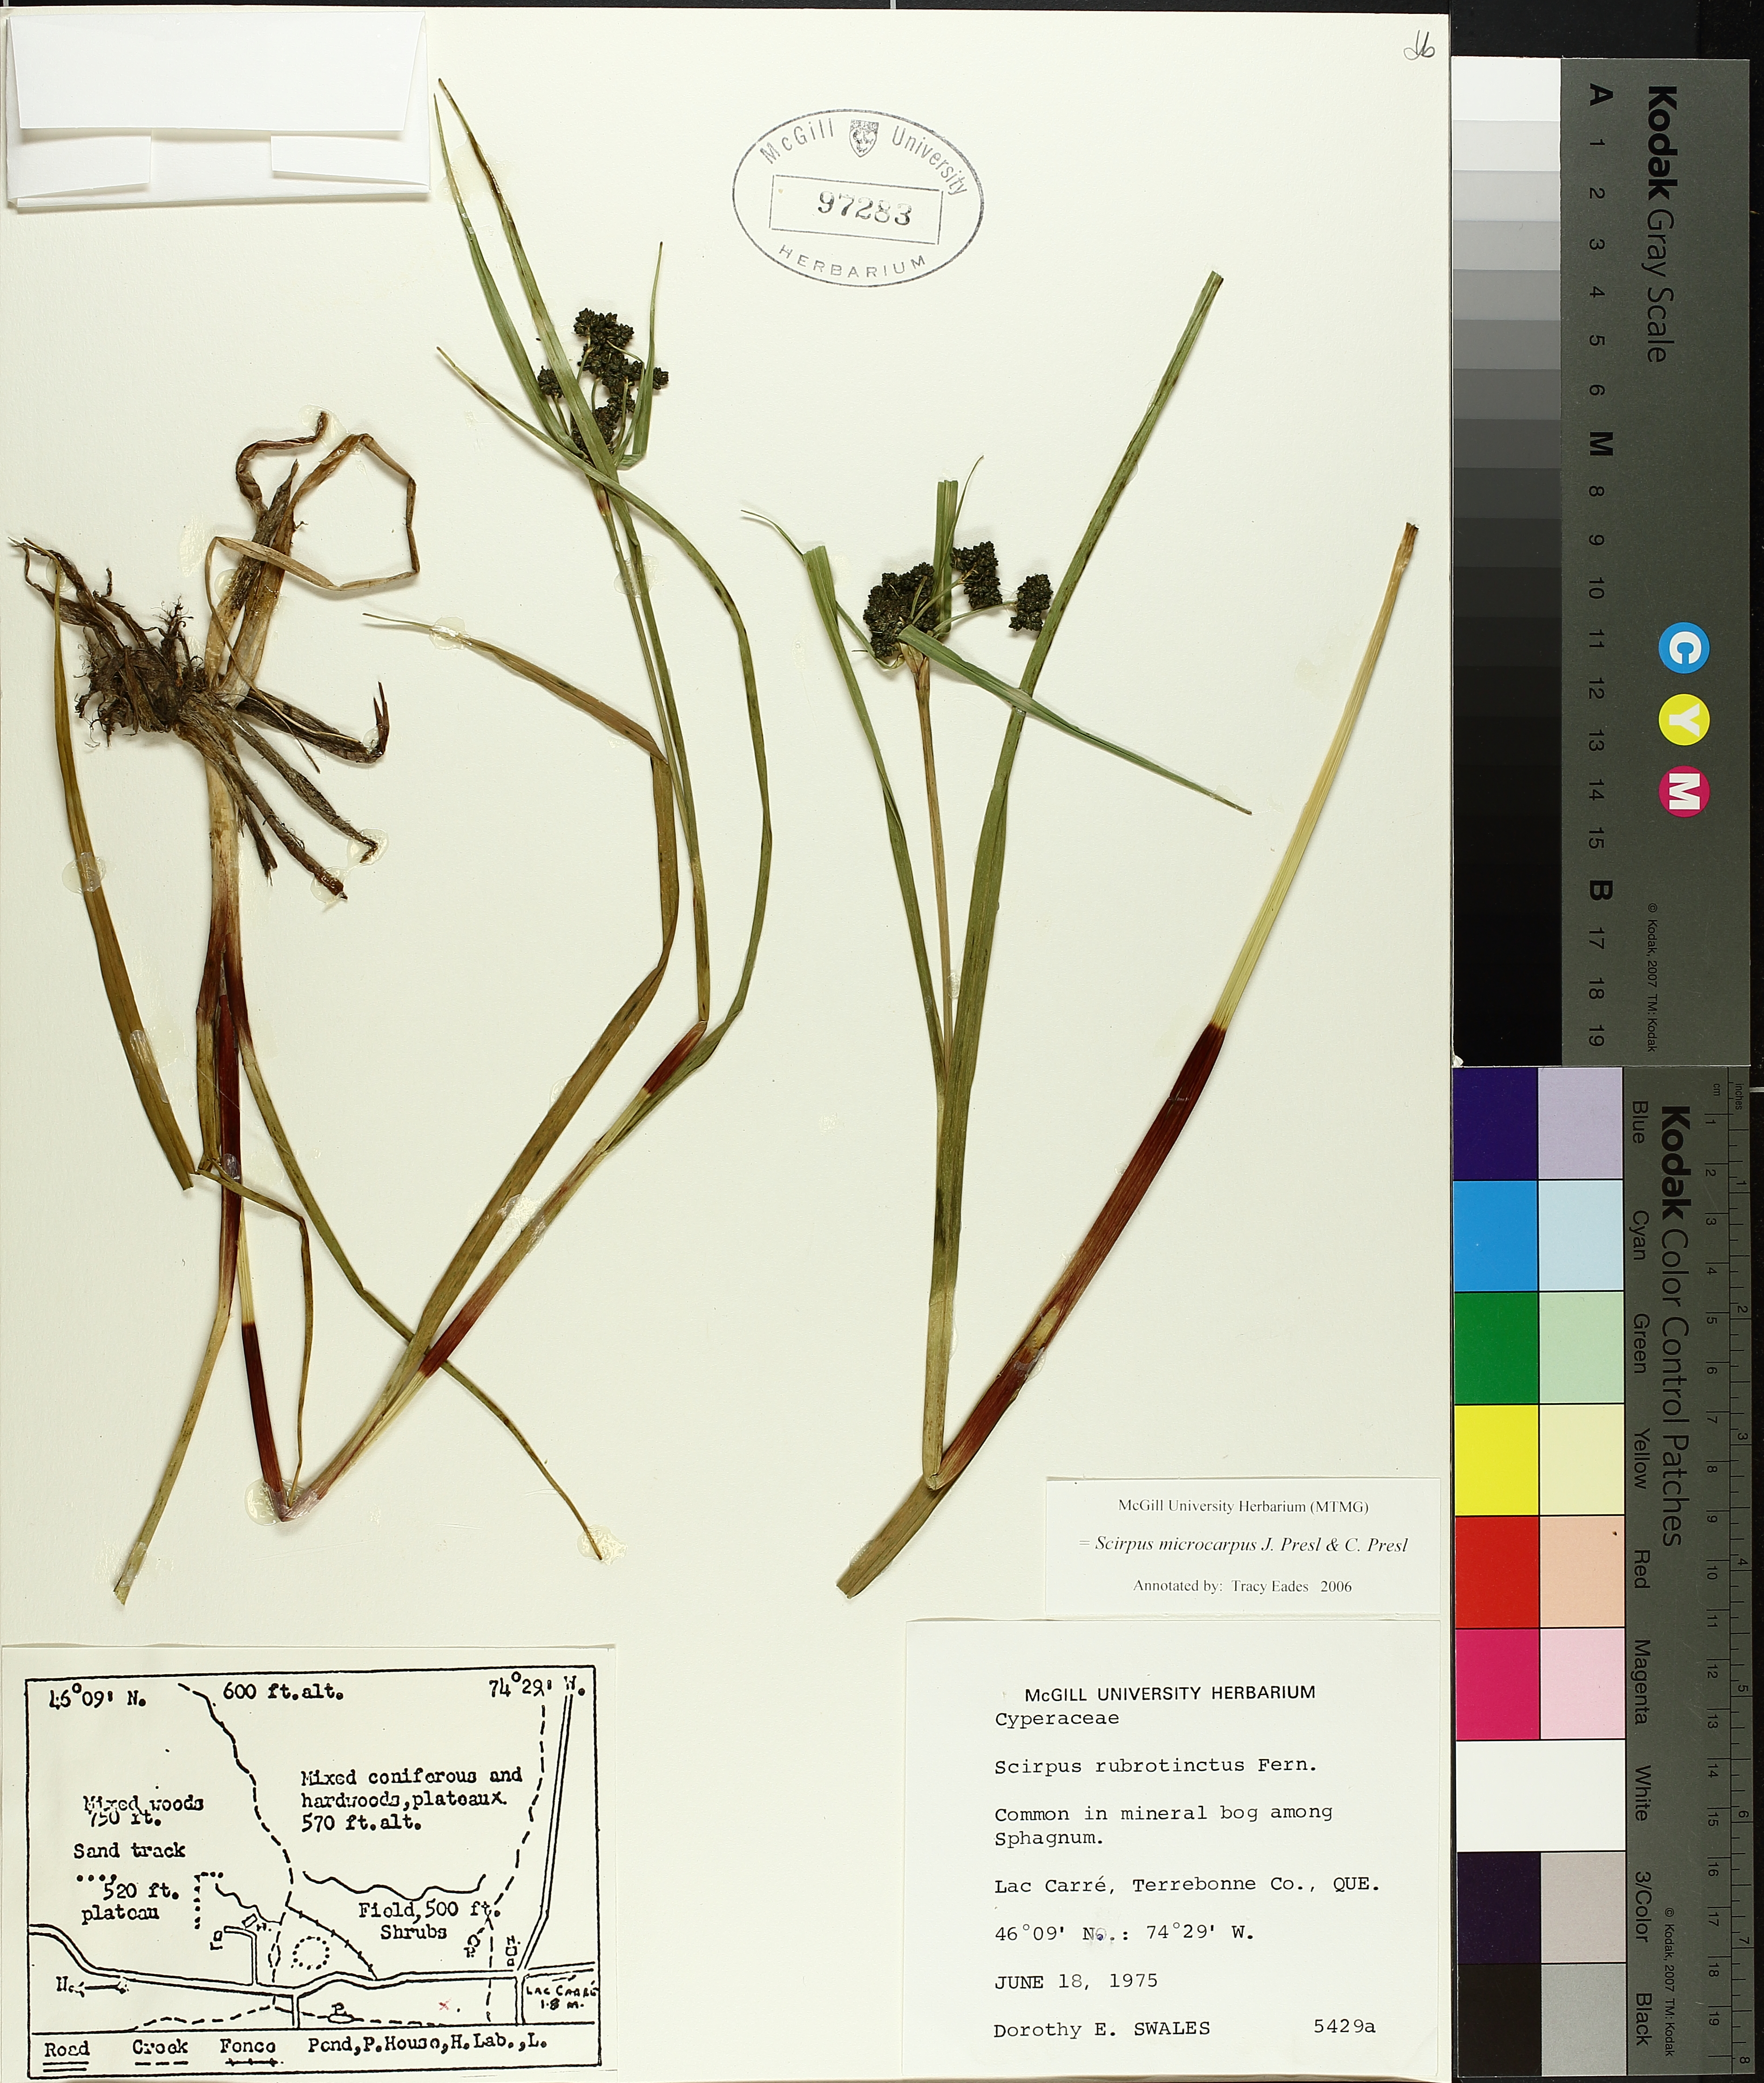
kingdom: Plantae
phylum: Tracheophyta
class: Liliopsida
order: Poales
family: Cyperaceae
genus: Scirpus
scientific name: Scirpus microcarpus
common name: Panicled bulrush
